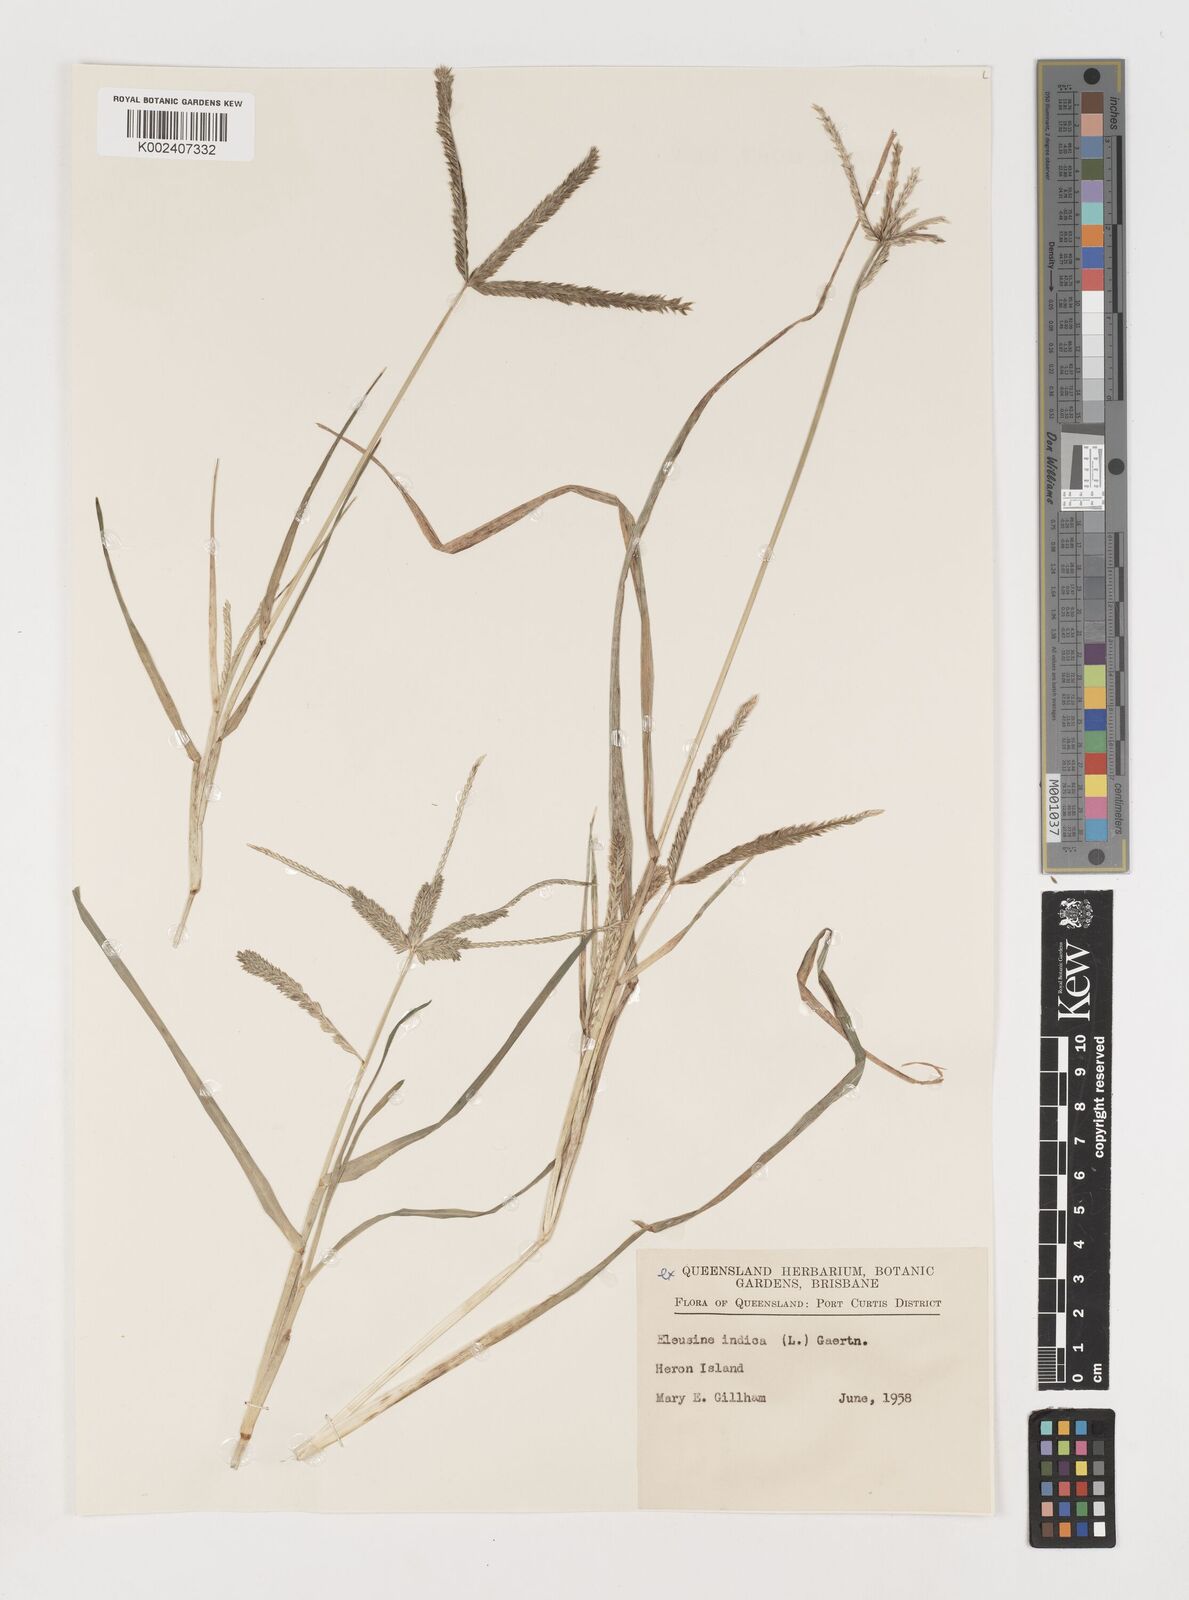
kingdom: Plantae
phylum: Tracheophyta
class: Liliopsida
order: Poales
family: Poaceae
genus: Eleusine
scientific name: Eleusine indica
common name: Yard-grass
